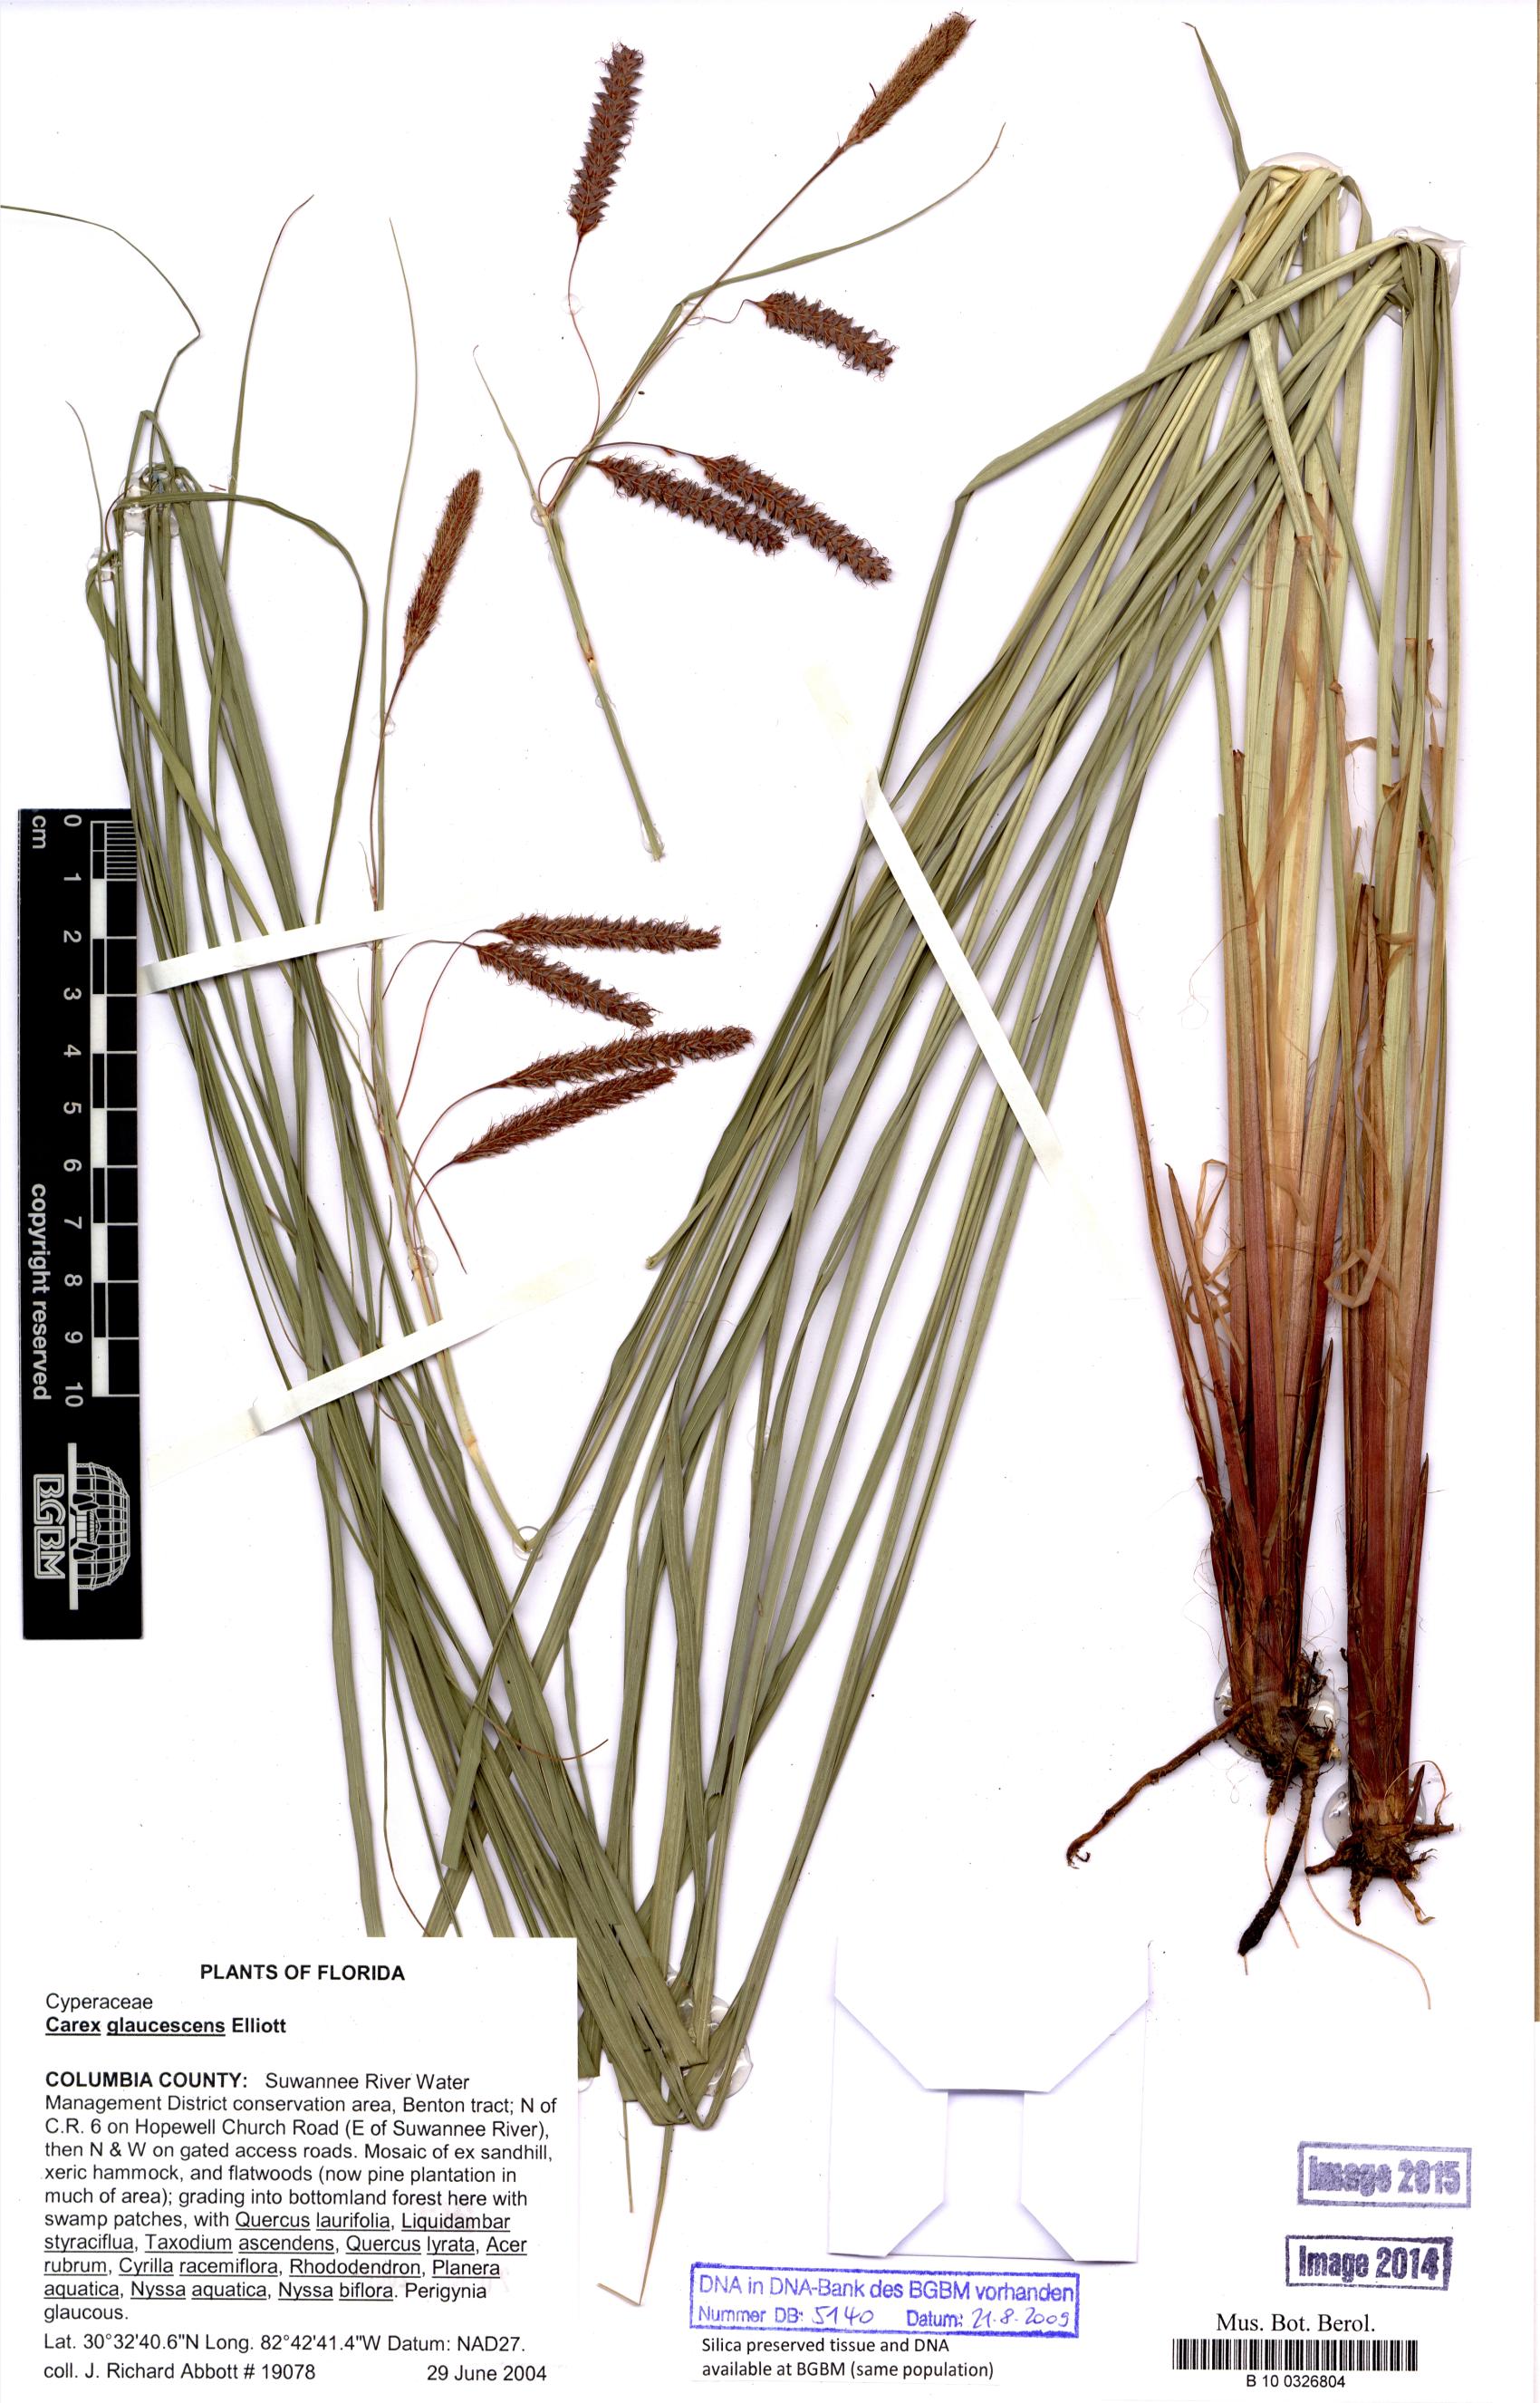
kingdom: Plantae
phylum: Tracheophyta
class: Liliopsida
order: Poales
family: Cyperaceae
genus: Carex
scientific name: Carex glaucescens
